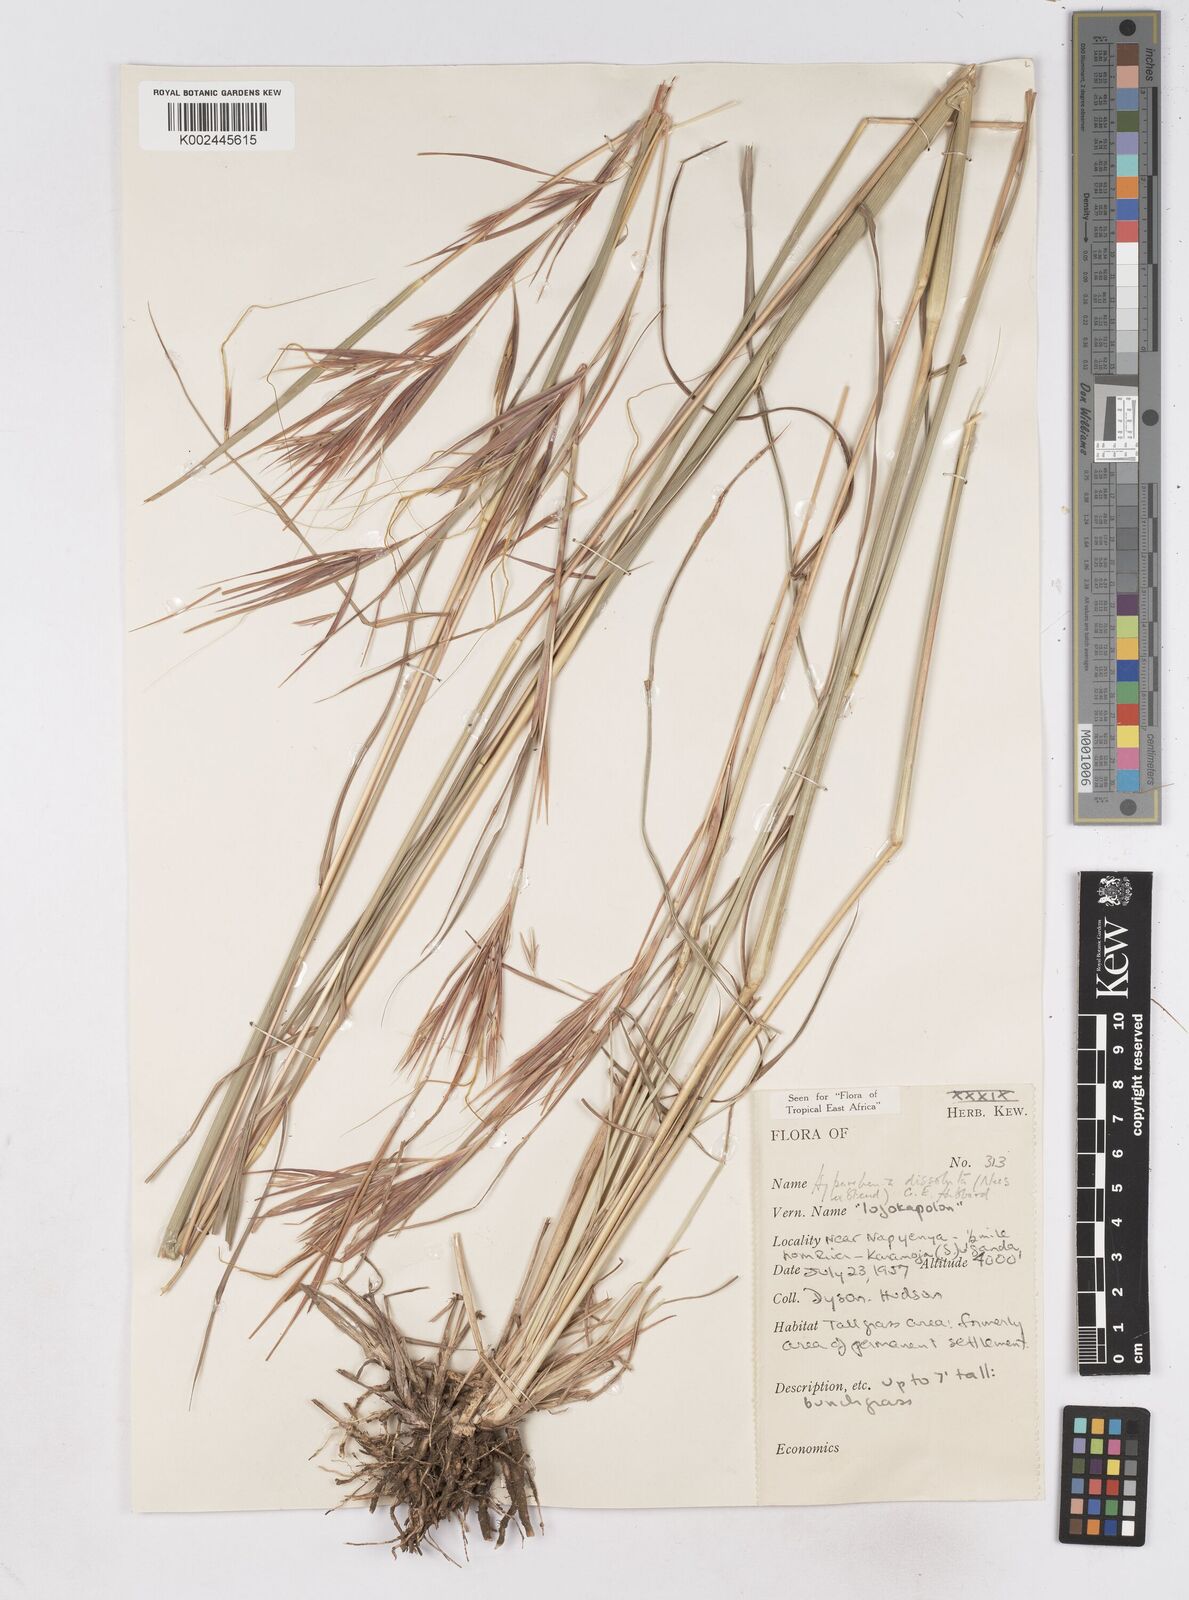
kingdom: Plantae
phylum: Tracheophyta
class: Liliopsida
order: Poales
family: Poaceae
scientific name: Poaceae
